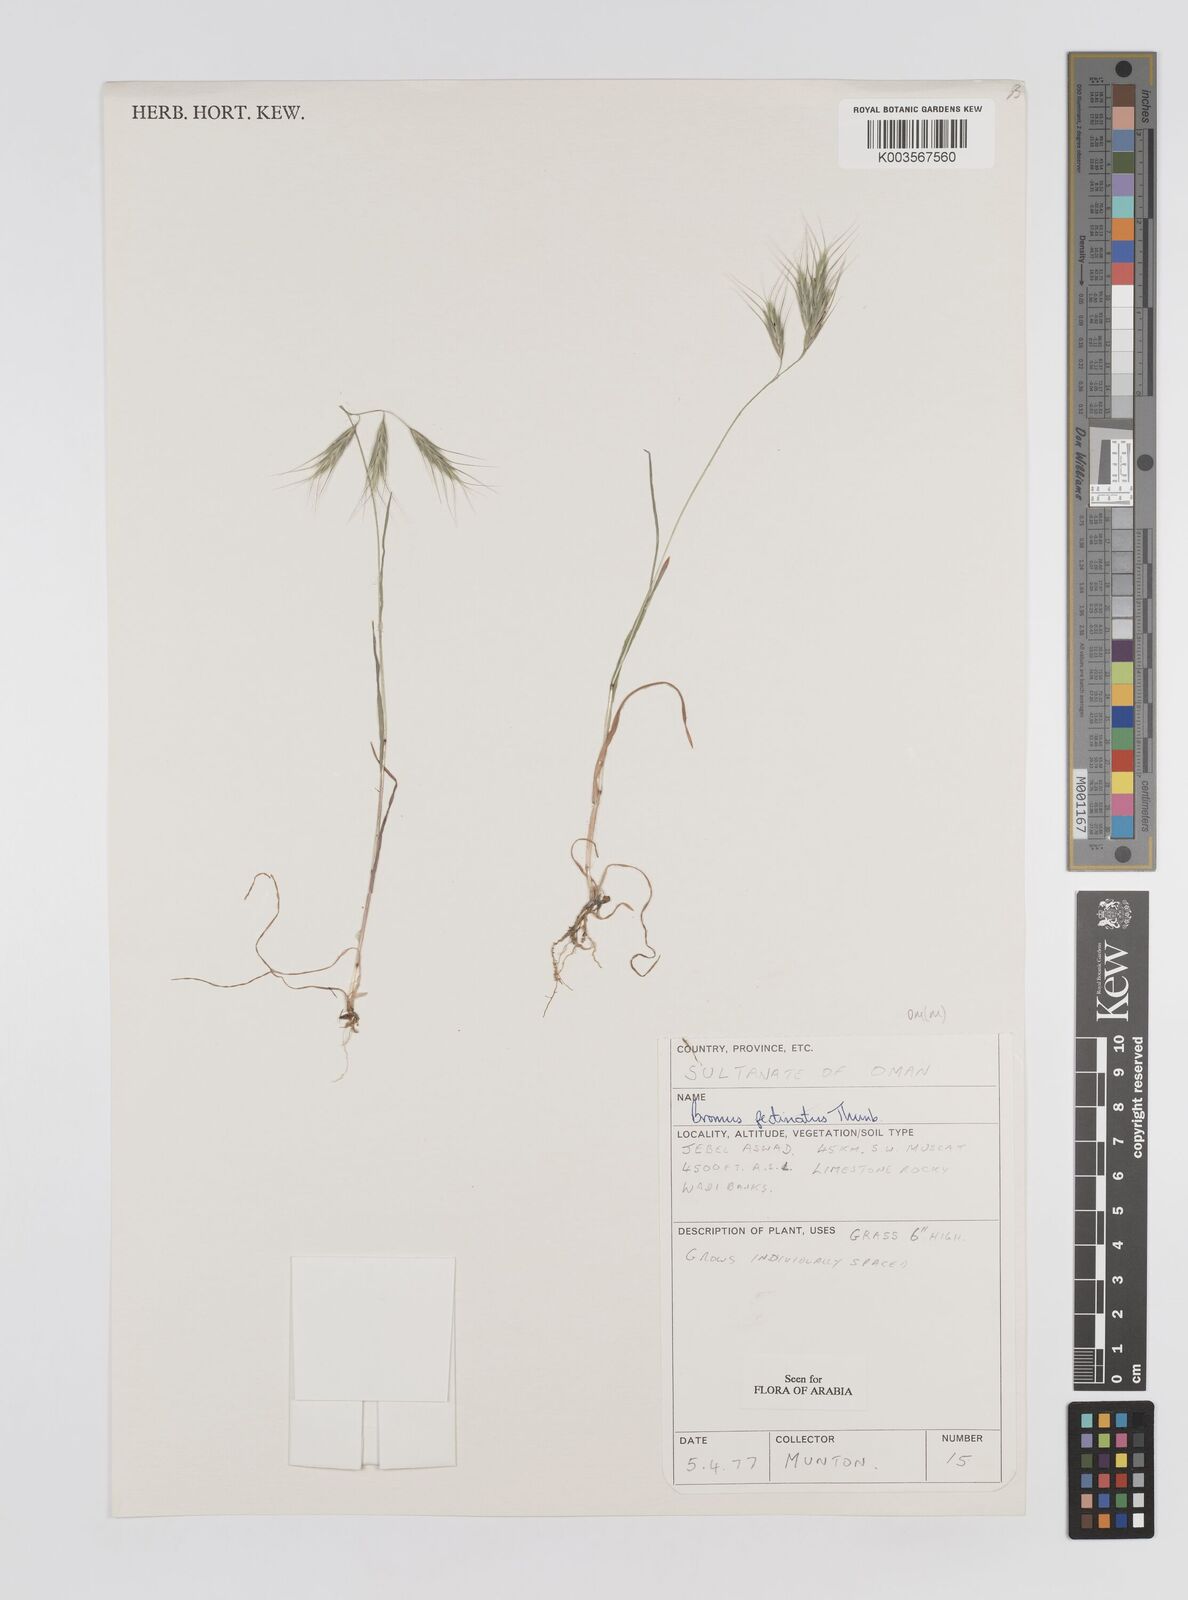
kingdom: Plantae
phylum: Tracheophyta
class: Liliopsida
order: Poales
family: Poaceae
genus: Bromus
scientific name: Bromus pectinatus
